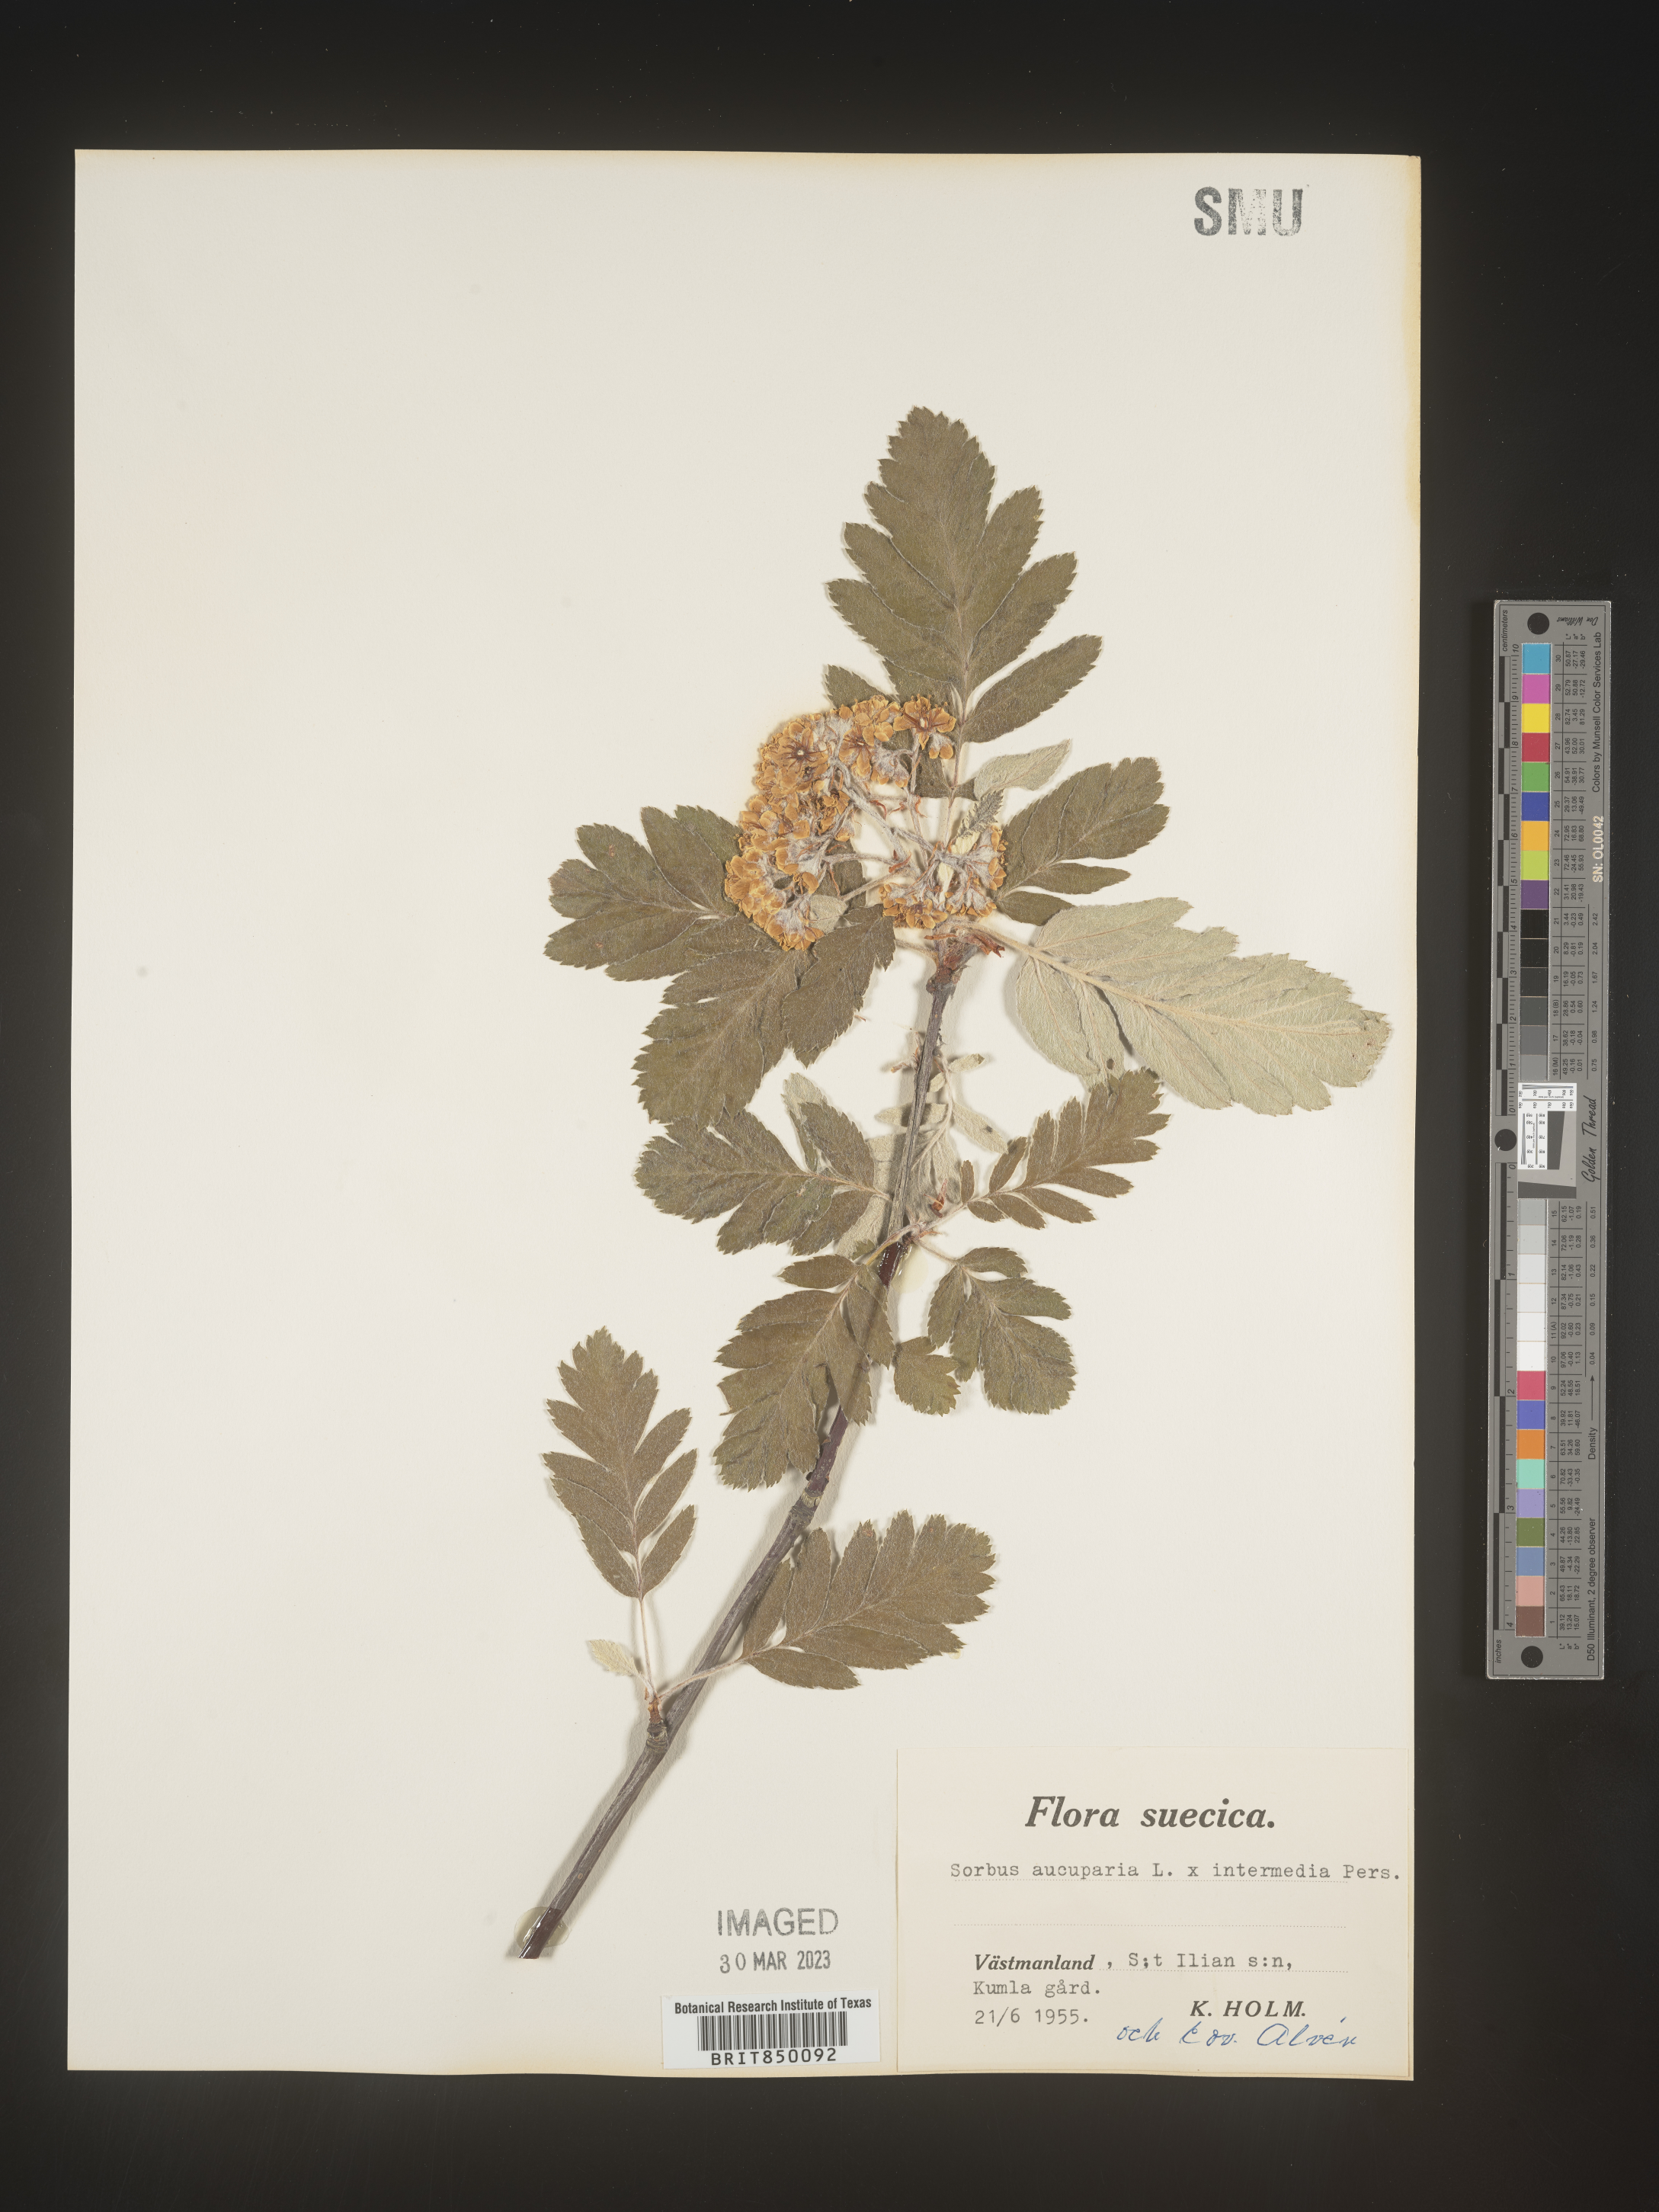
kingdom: Plantae
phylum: Tracheophyta
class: Magnoliopsida
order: Rosales
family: Rosaceae
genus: Sorbus
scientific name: Sorbus
